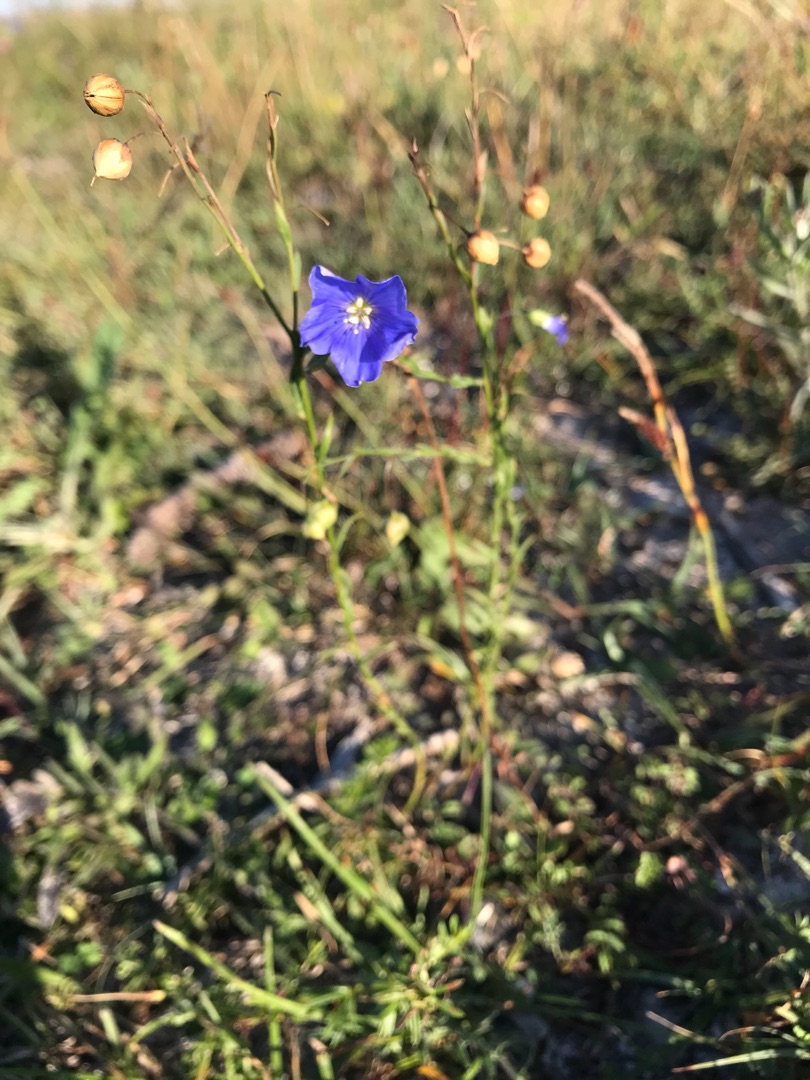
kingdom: Plantae
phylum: Tracheophyta
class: Magnoliopsida
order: Malpighiales
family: Linaceae
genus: Linum
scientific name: Linum austriacum
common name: Østrigsk hør
